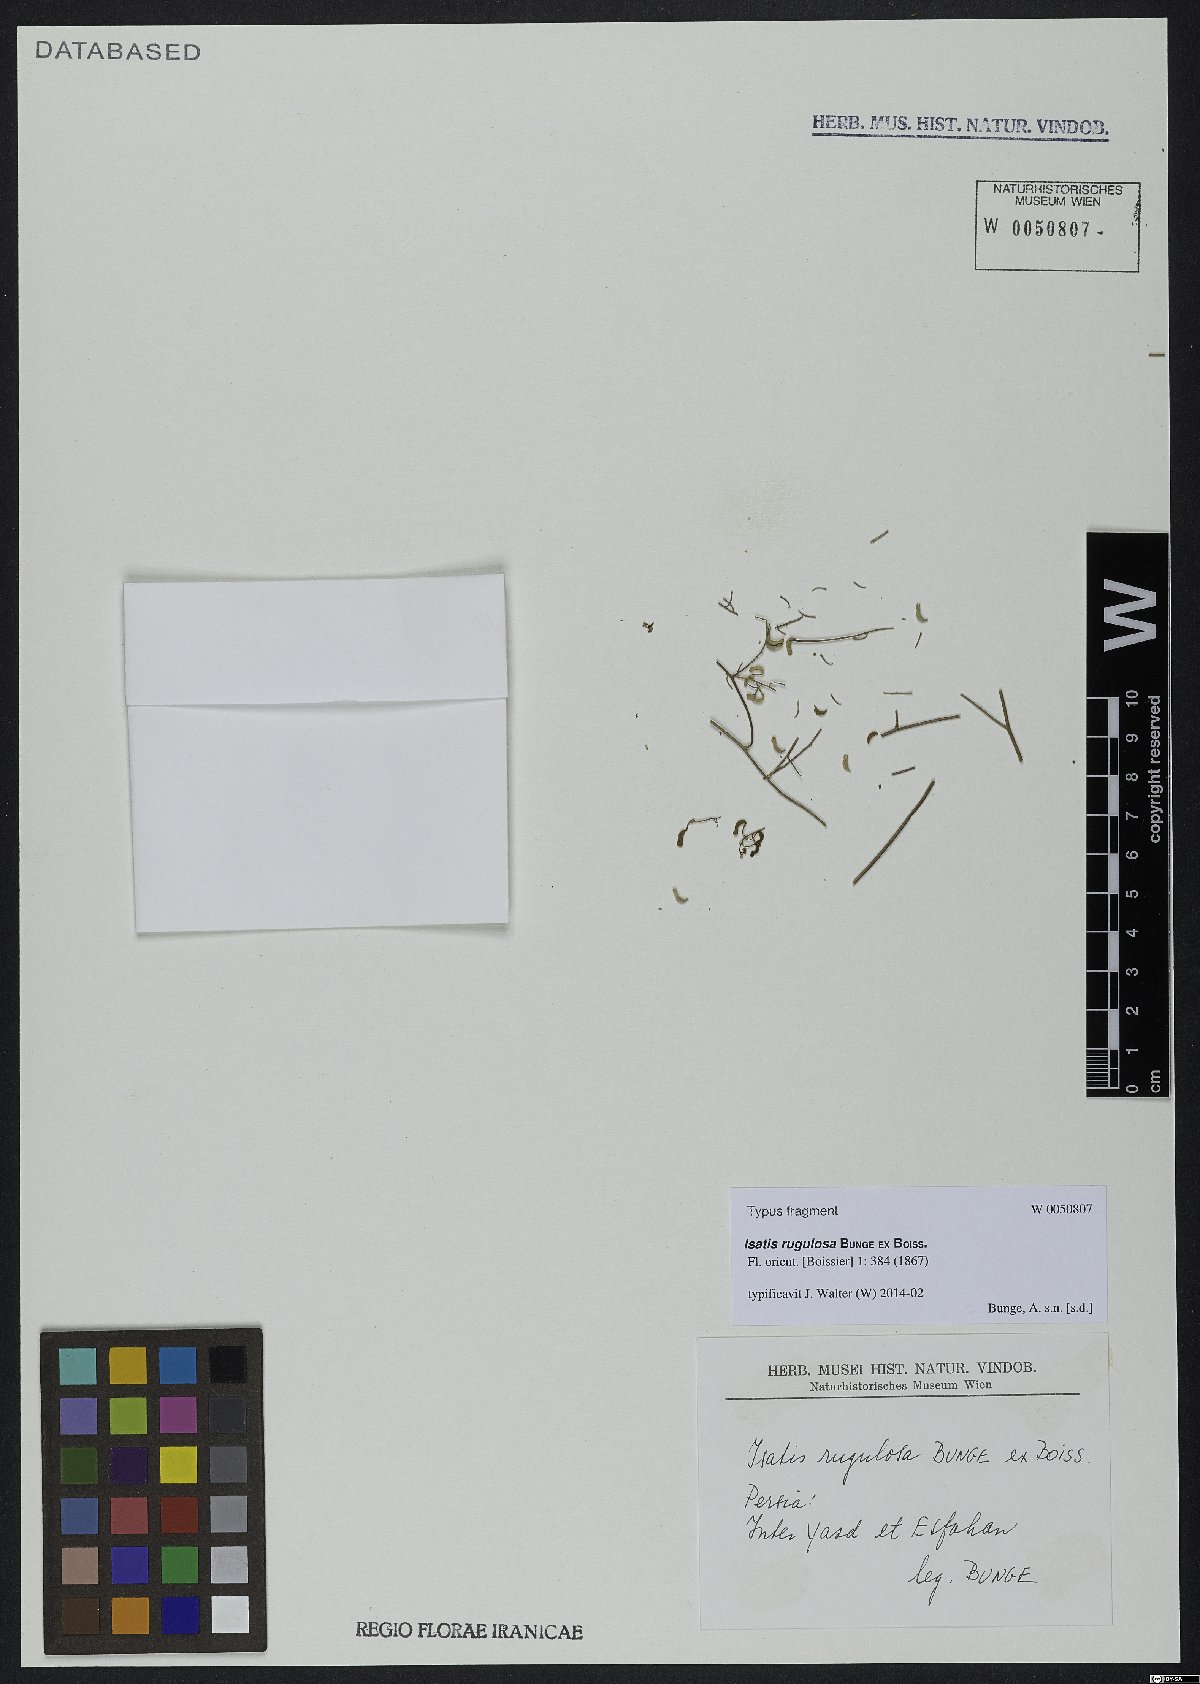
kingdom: Plantae
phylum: Tracheophyta
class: Magnoliopsida
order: Brassicales
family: Brassicaceae
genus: Isatis
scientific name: Isatis rugulosa
